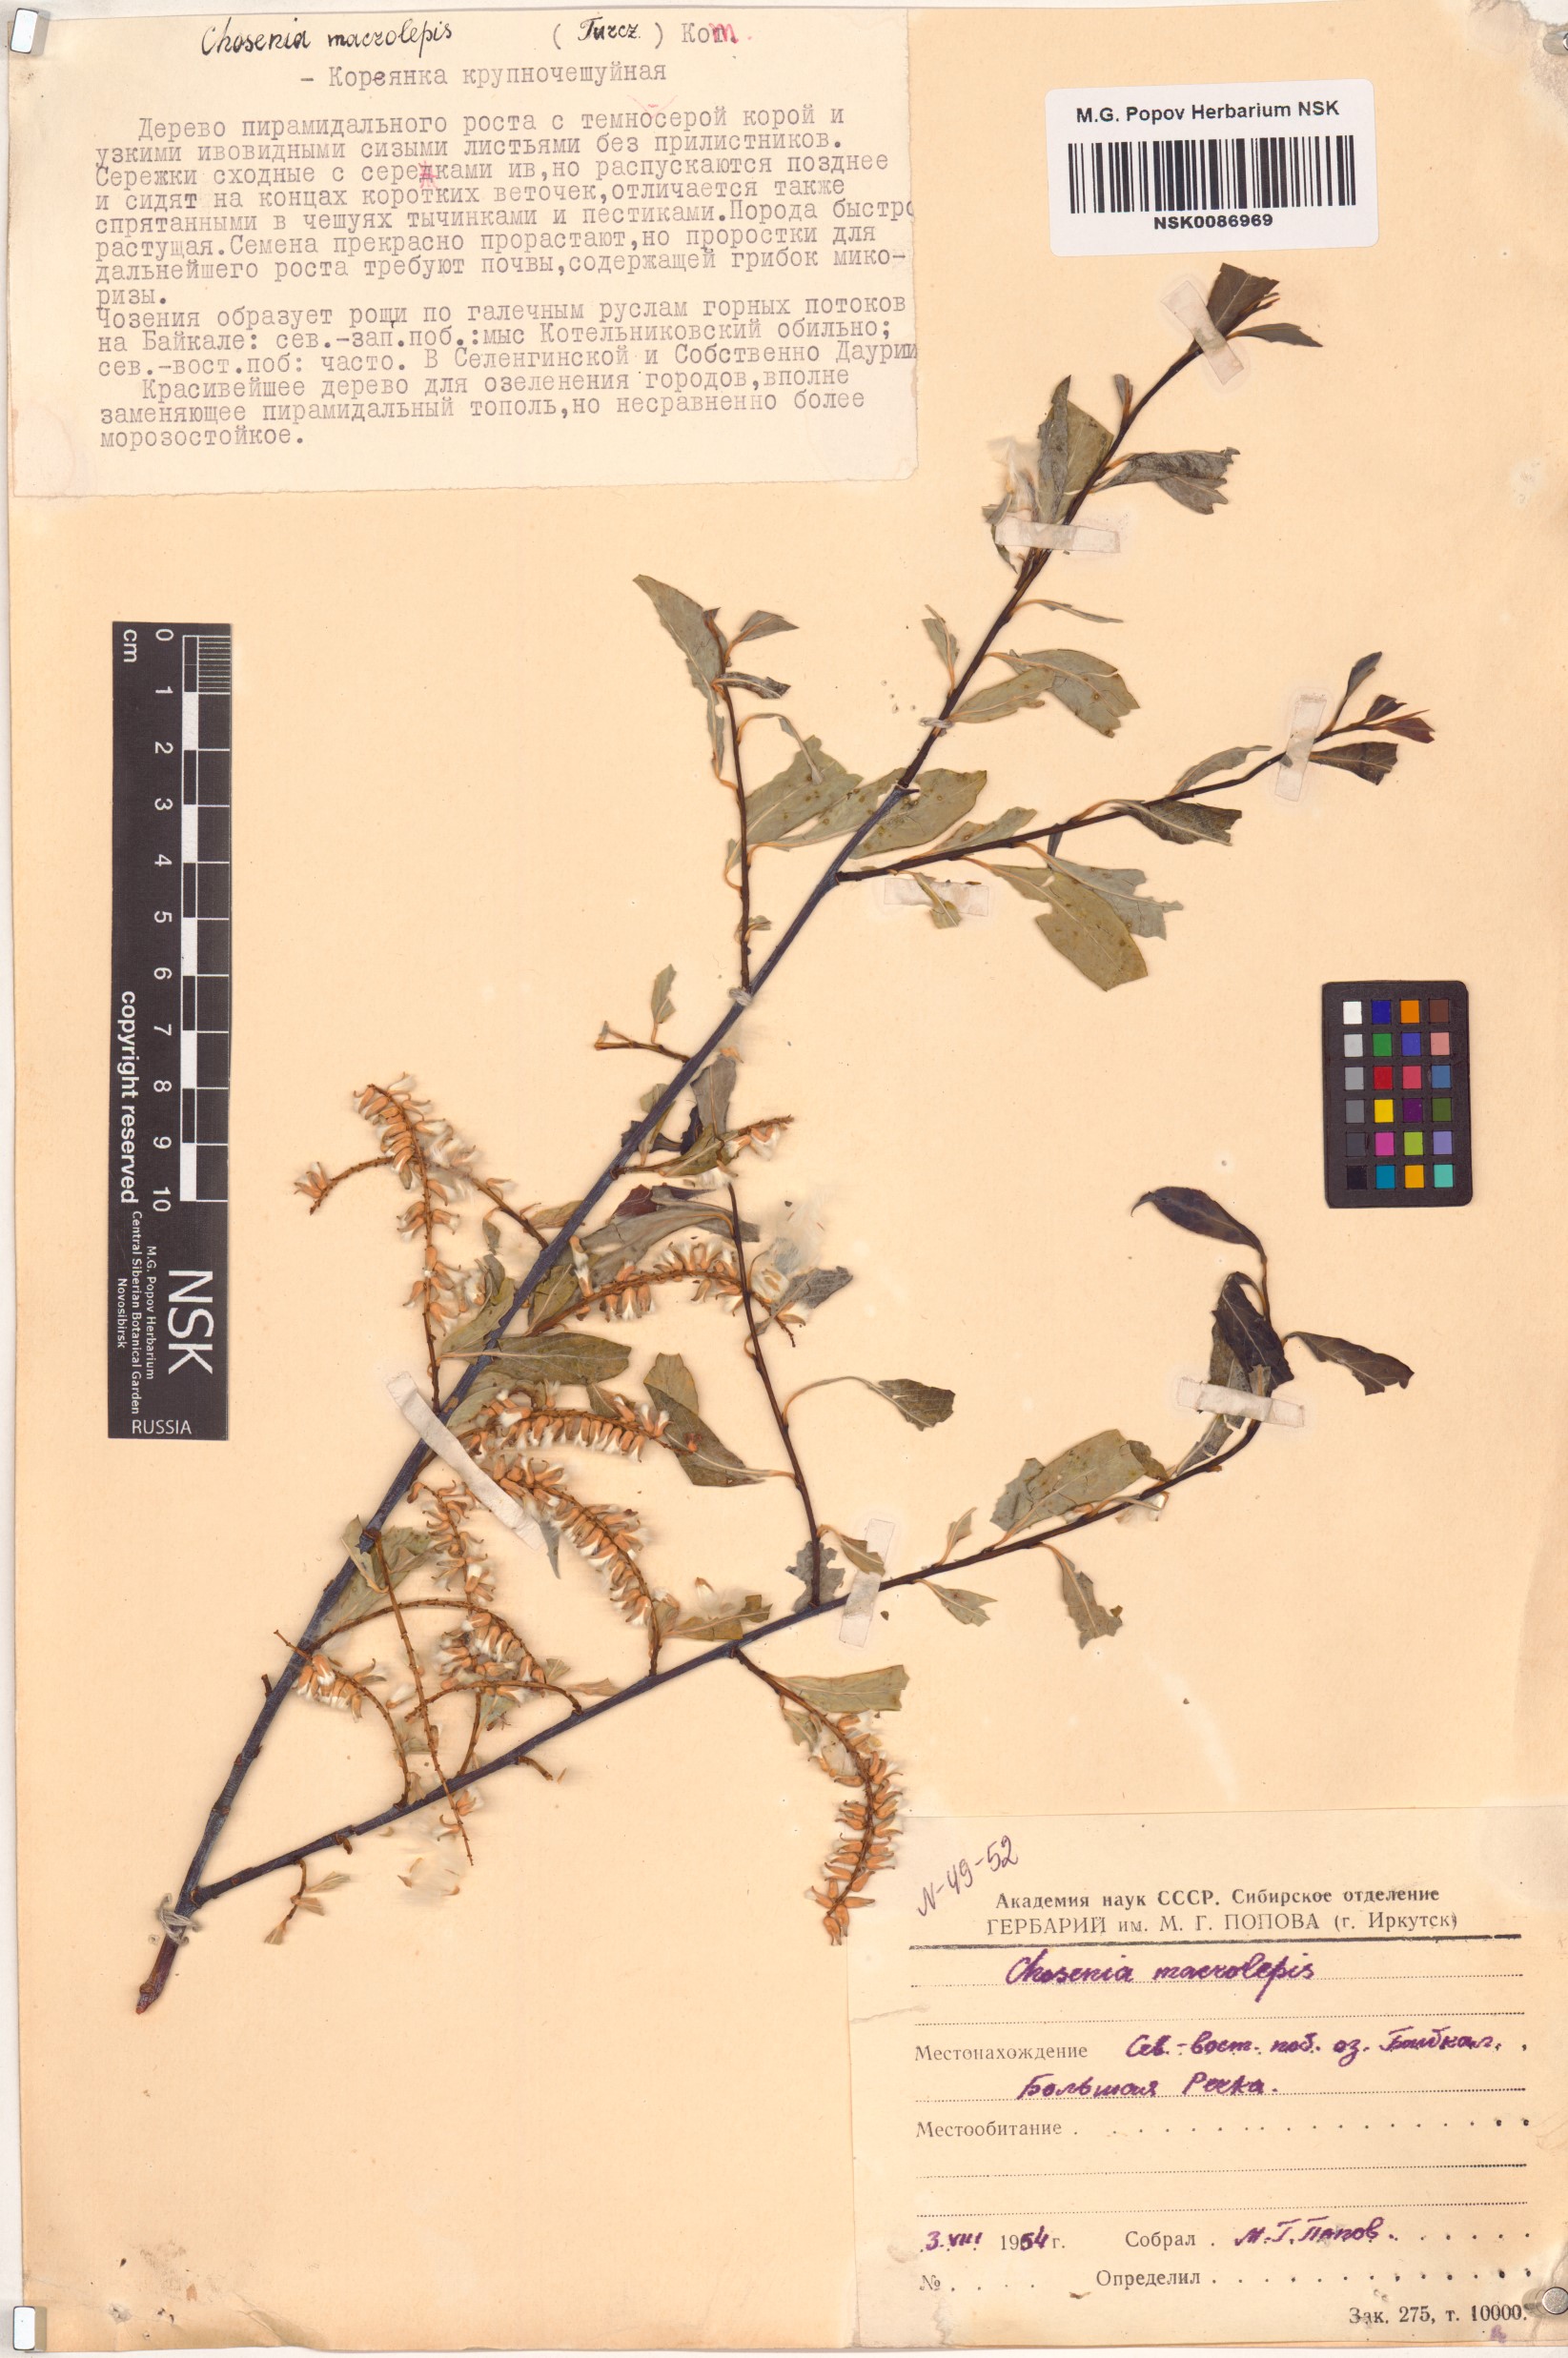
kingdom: Plantae
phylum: Tracheophyta
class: Magnoliopsida
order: Malpighiales
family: Salicaceae
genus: Chosenia
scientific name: Chosenia arbutifolia
